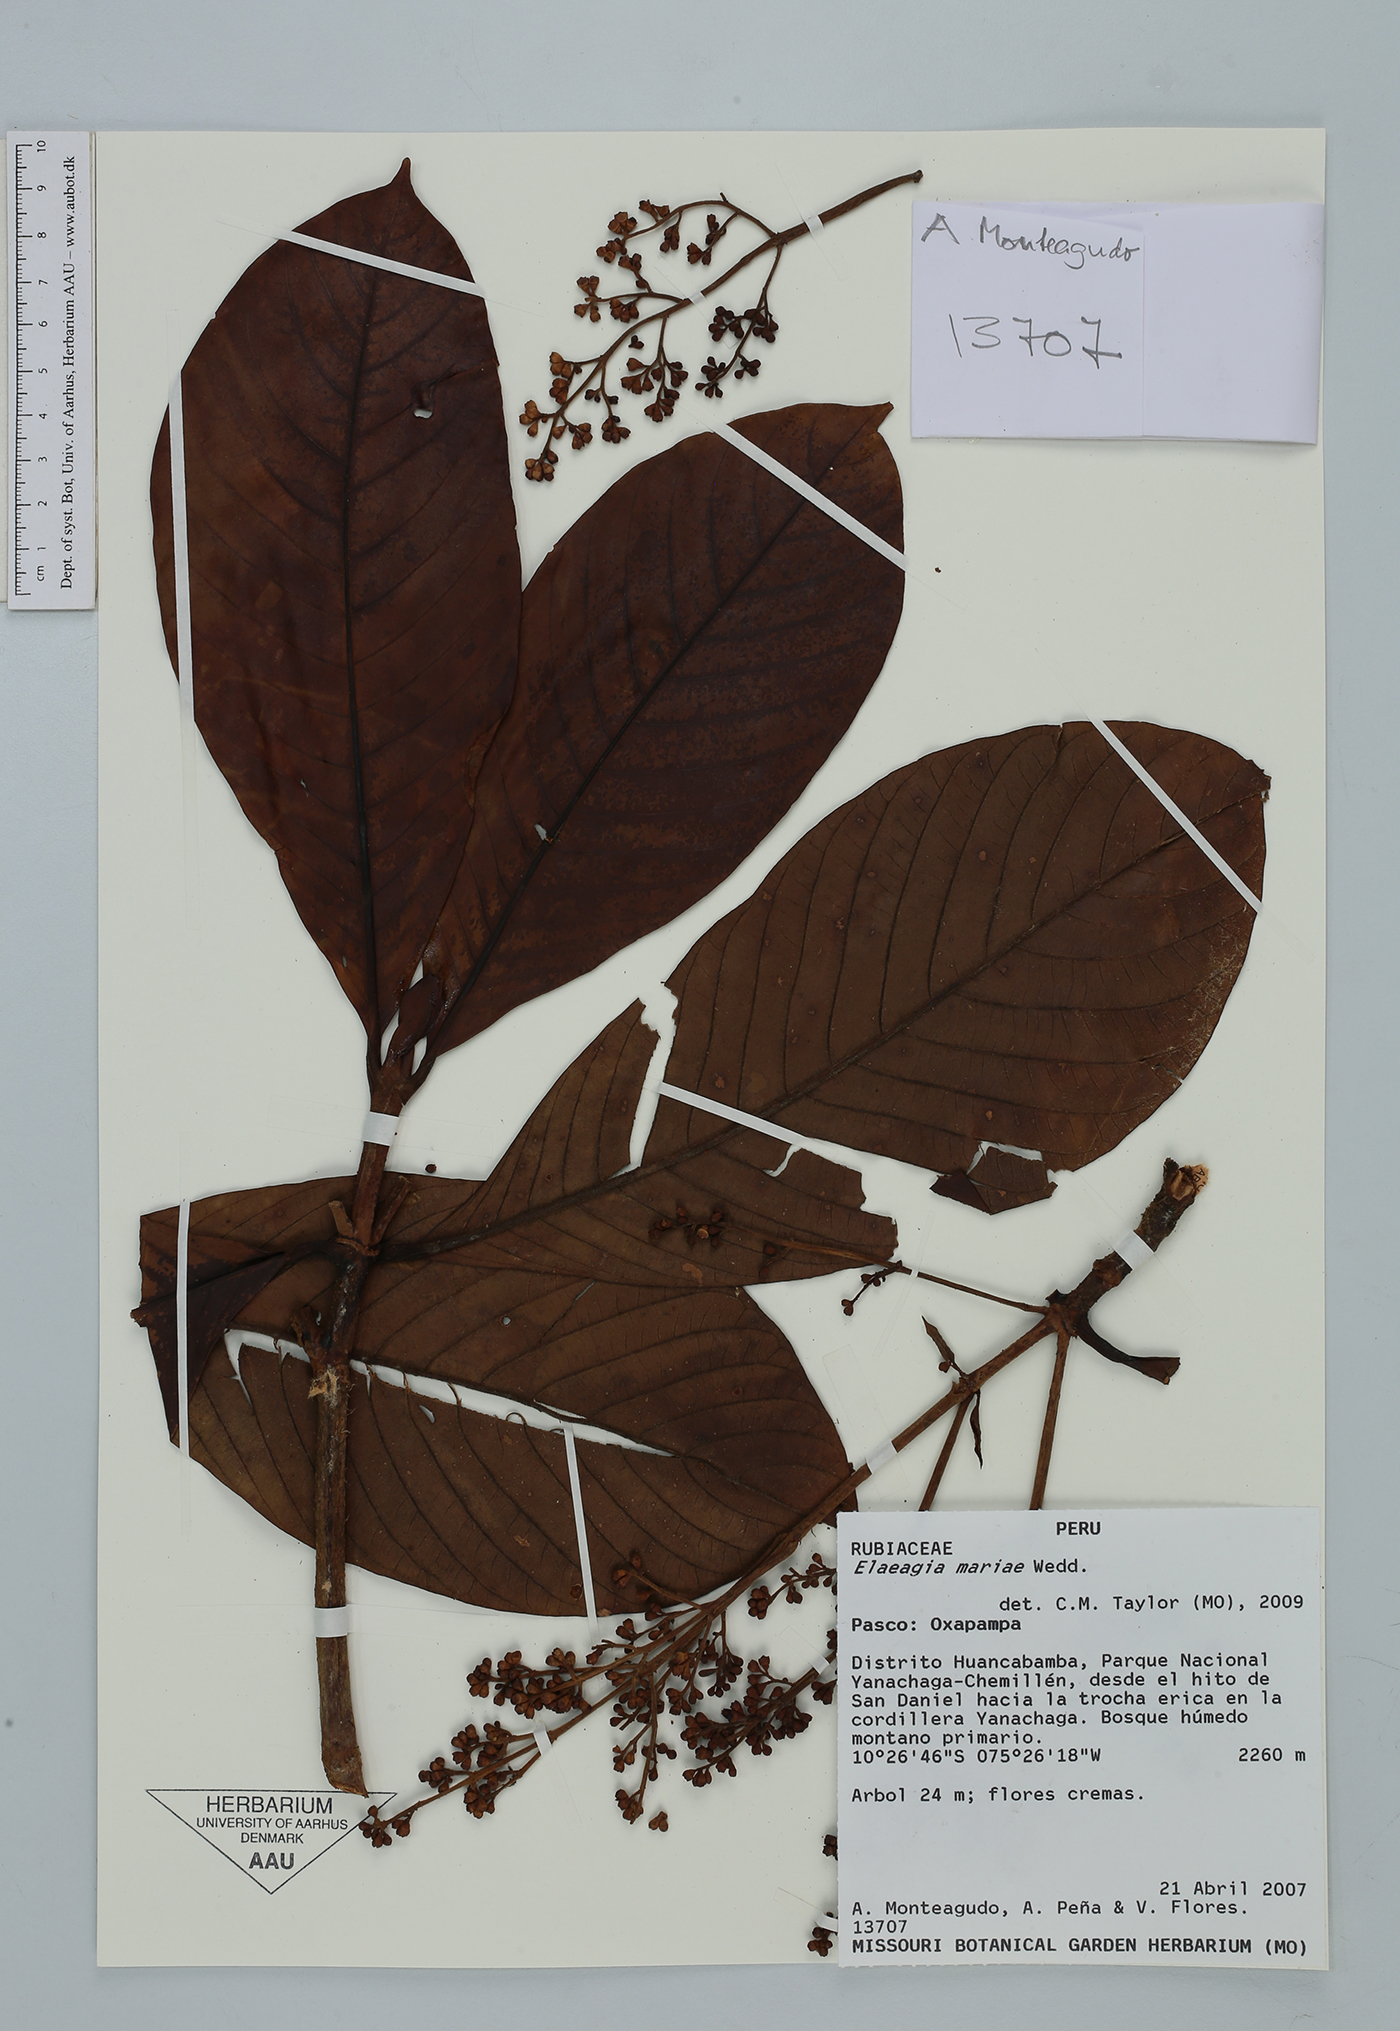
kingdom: Plantae
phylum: Tracheophyta
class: Magnoliopsida
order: Gentianales
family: Rubiaceae
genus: Elaeagia
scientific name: Elaeagia mariae
